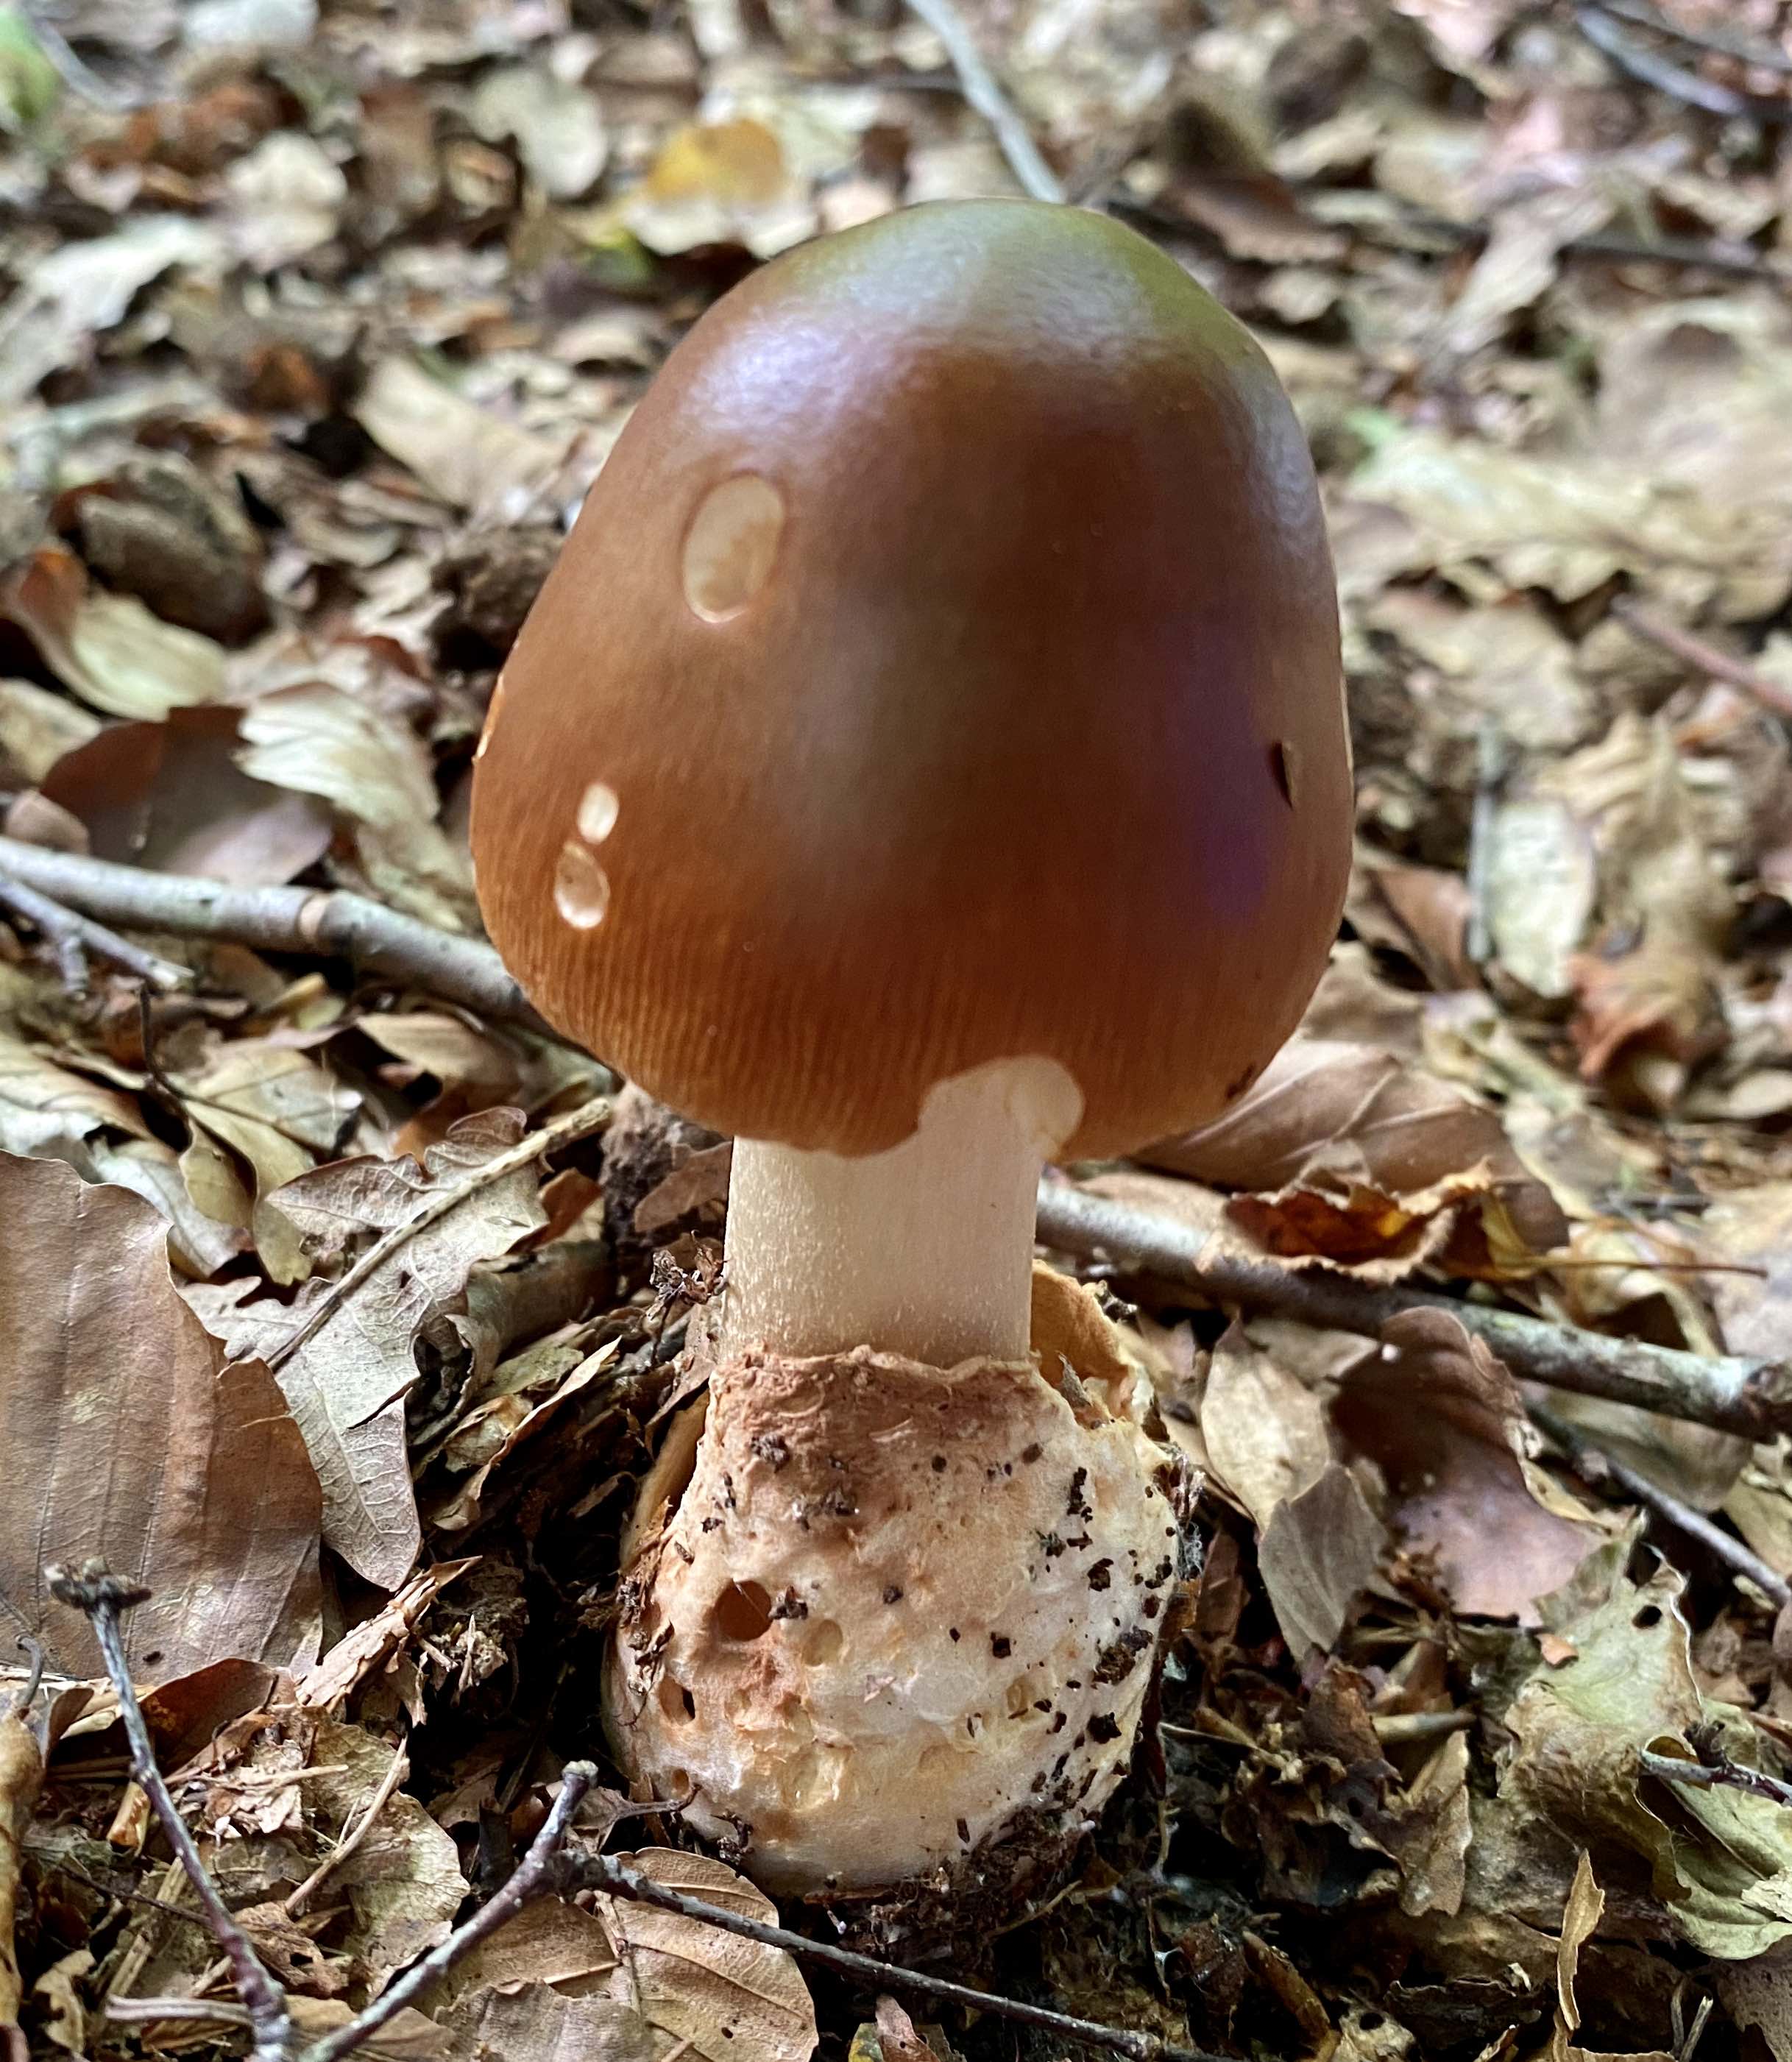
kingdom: Fungi
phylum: Basidiomycota
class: Agaricomycetes
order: Agaricales
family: Amanitaceae
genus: Amanita
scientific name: Amanita fulva
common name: brun kam-fluesvamp
